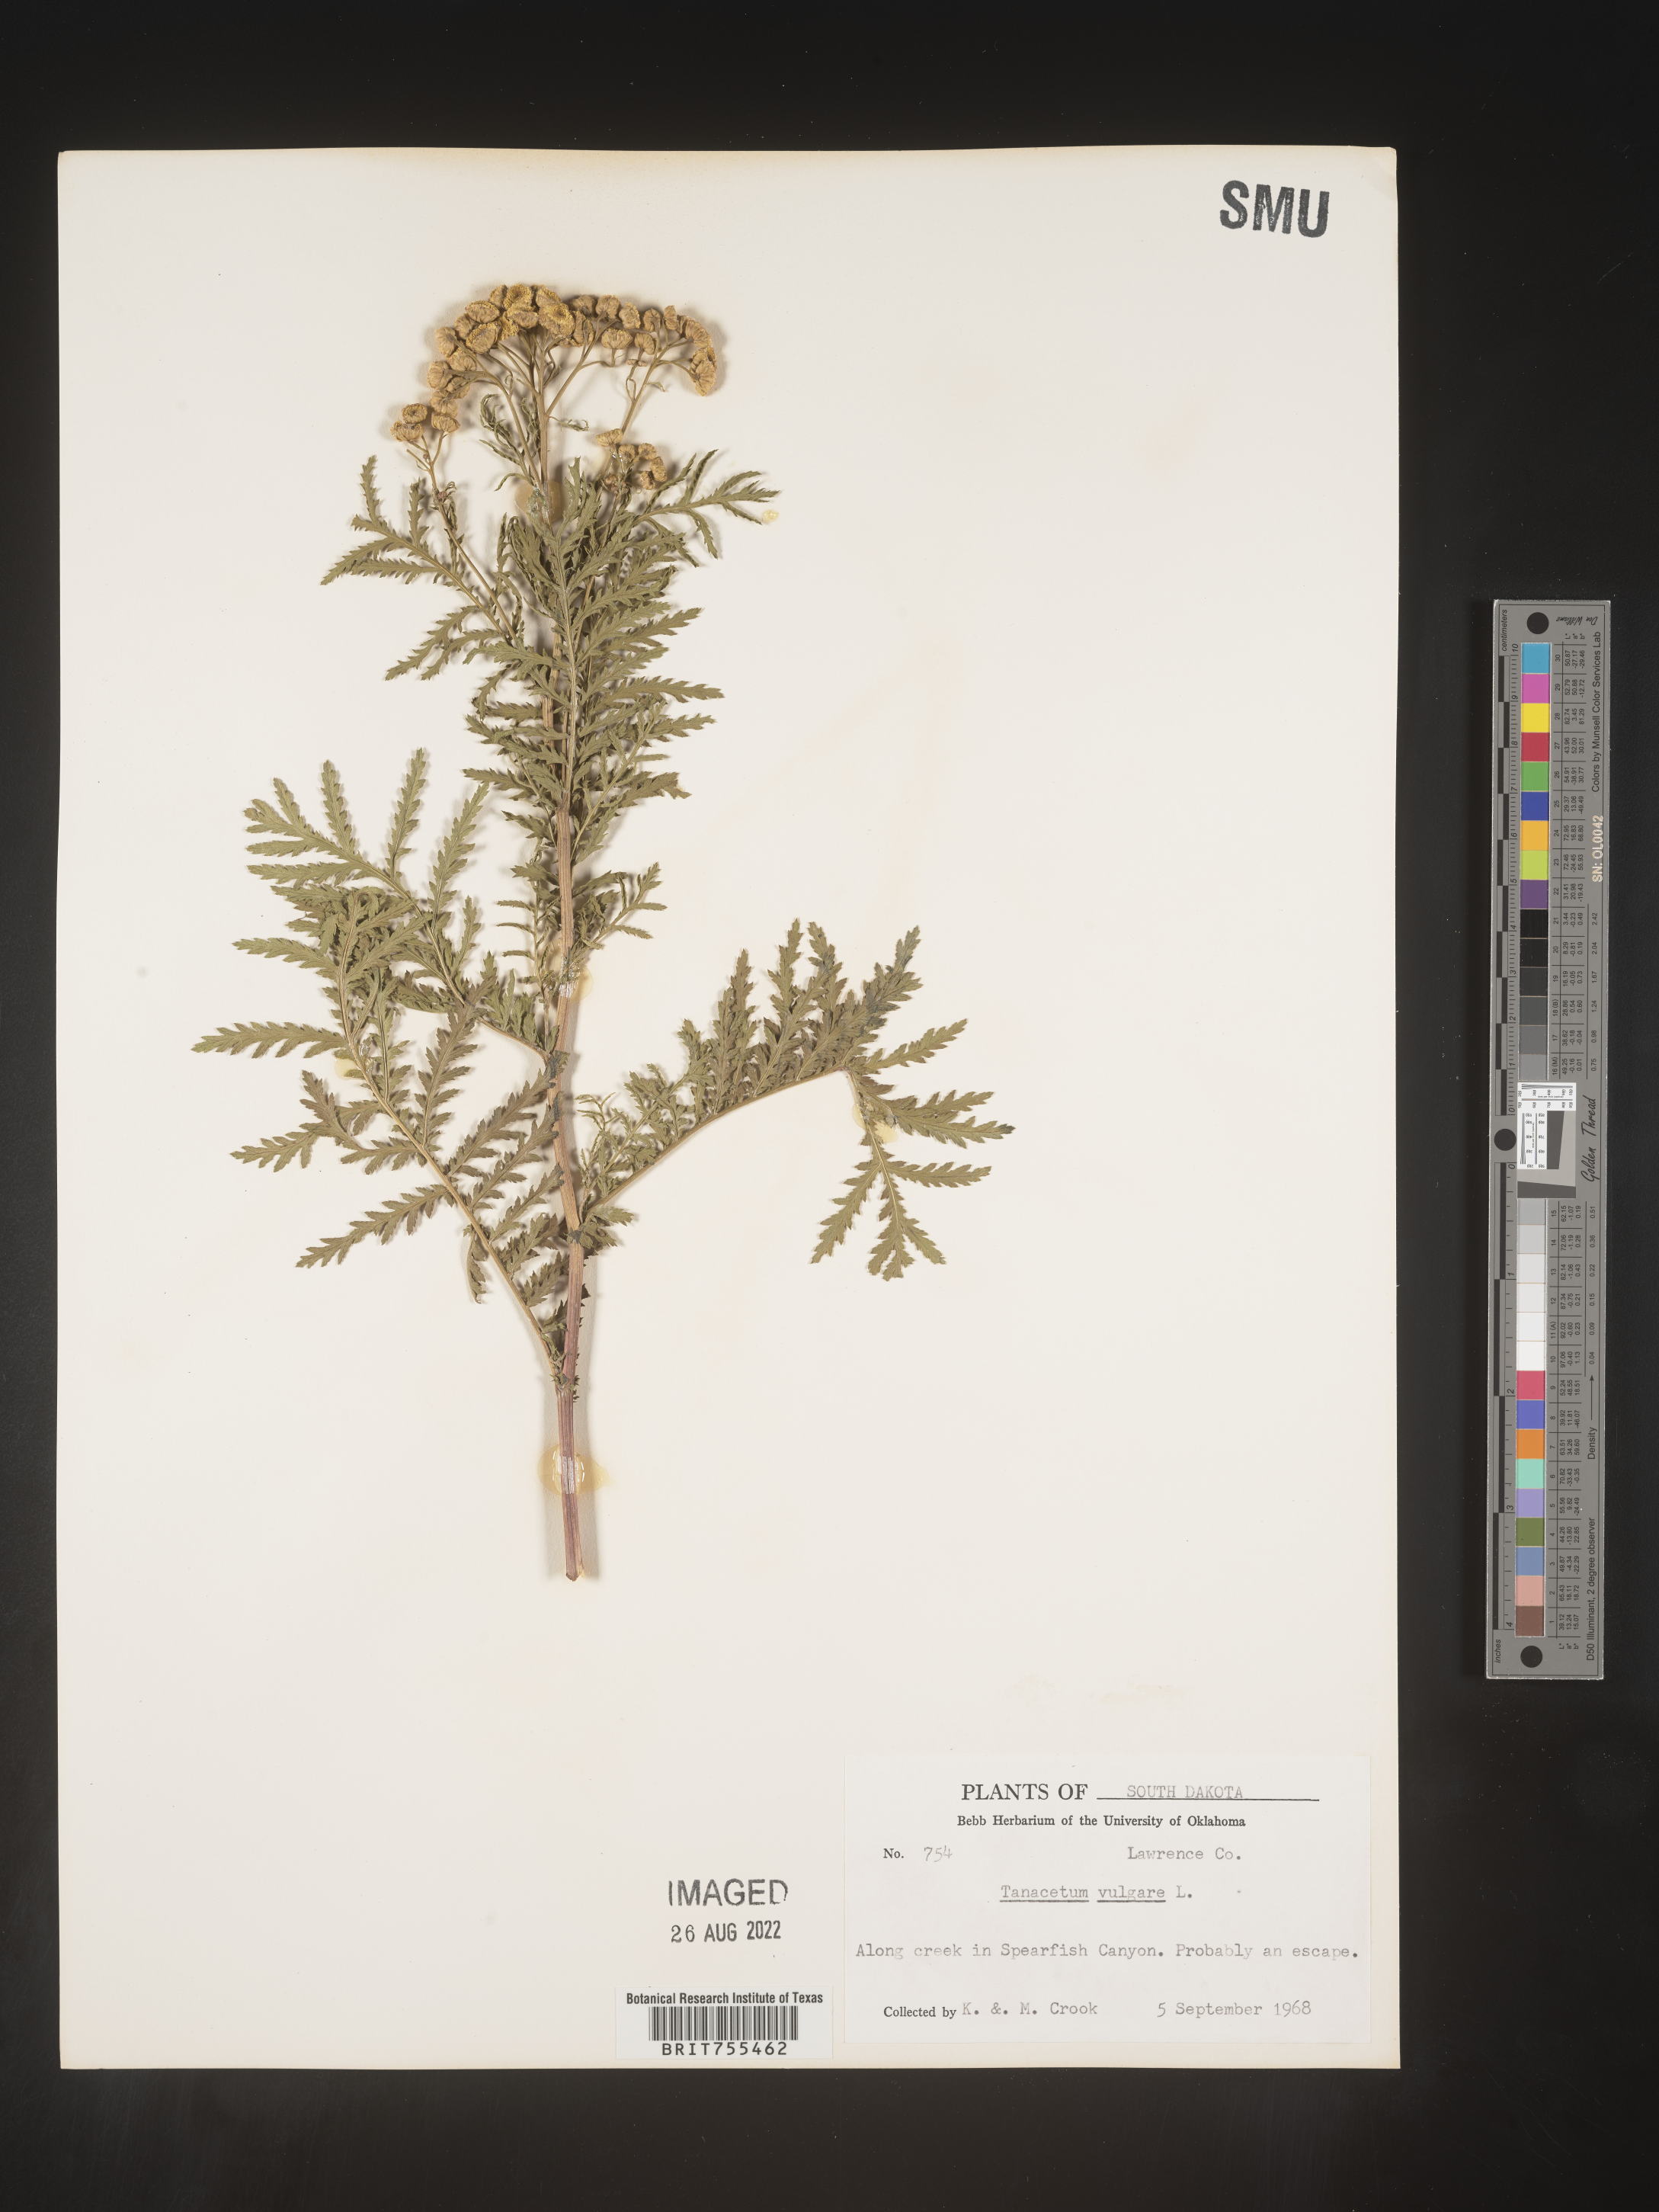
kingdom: Plantae
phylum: Tracheophyta
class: Magnoliopsida
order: Asterales
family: Asteraceae
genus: Tanacetum
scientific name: Tanacetum vulgare
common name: Common tansy
